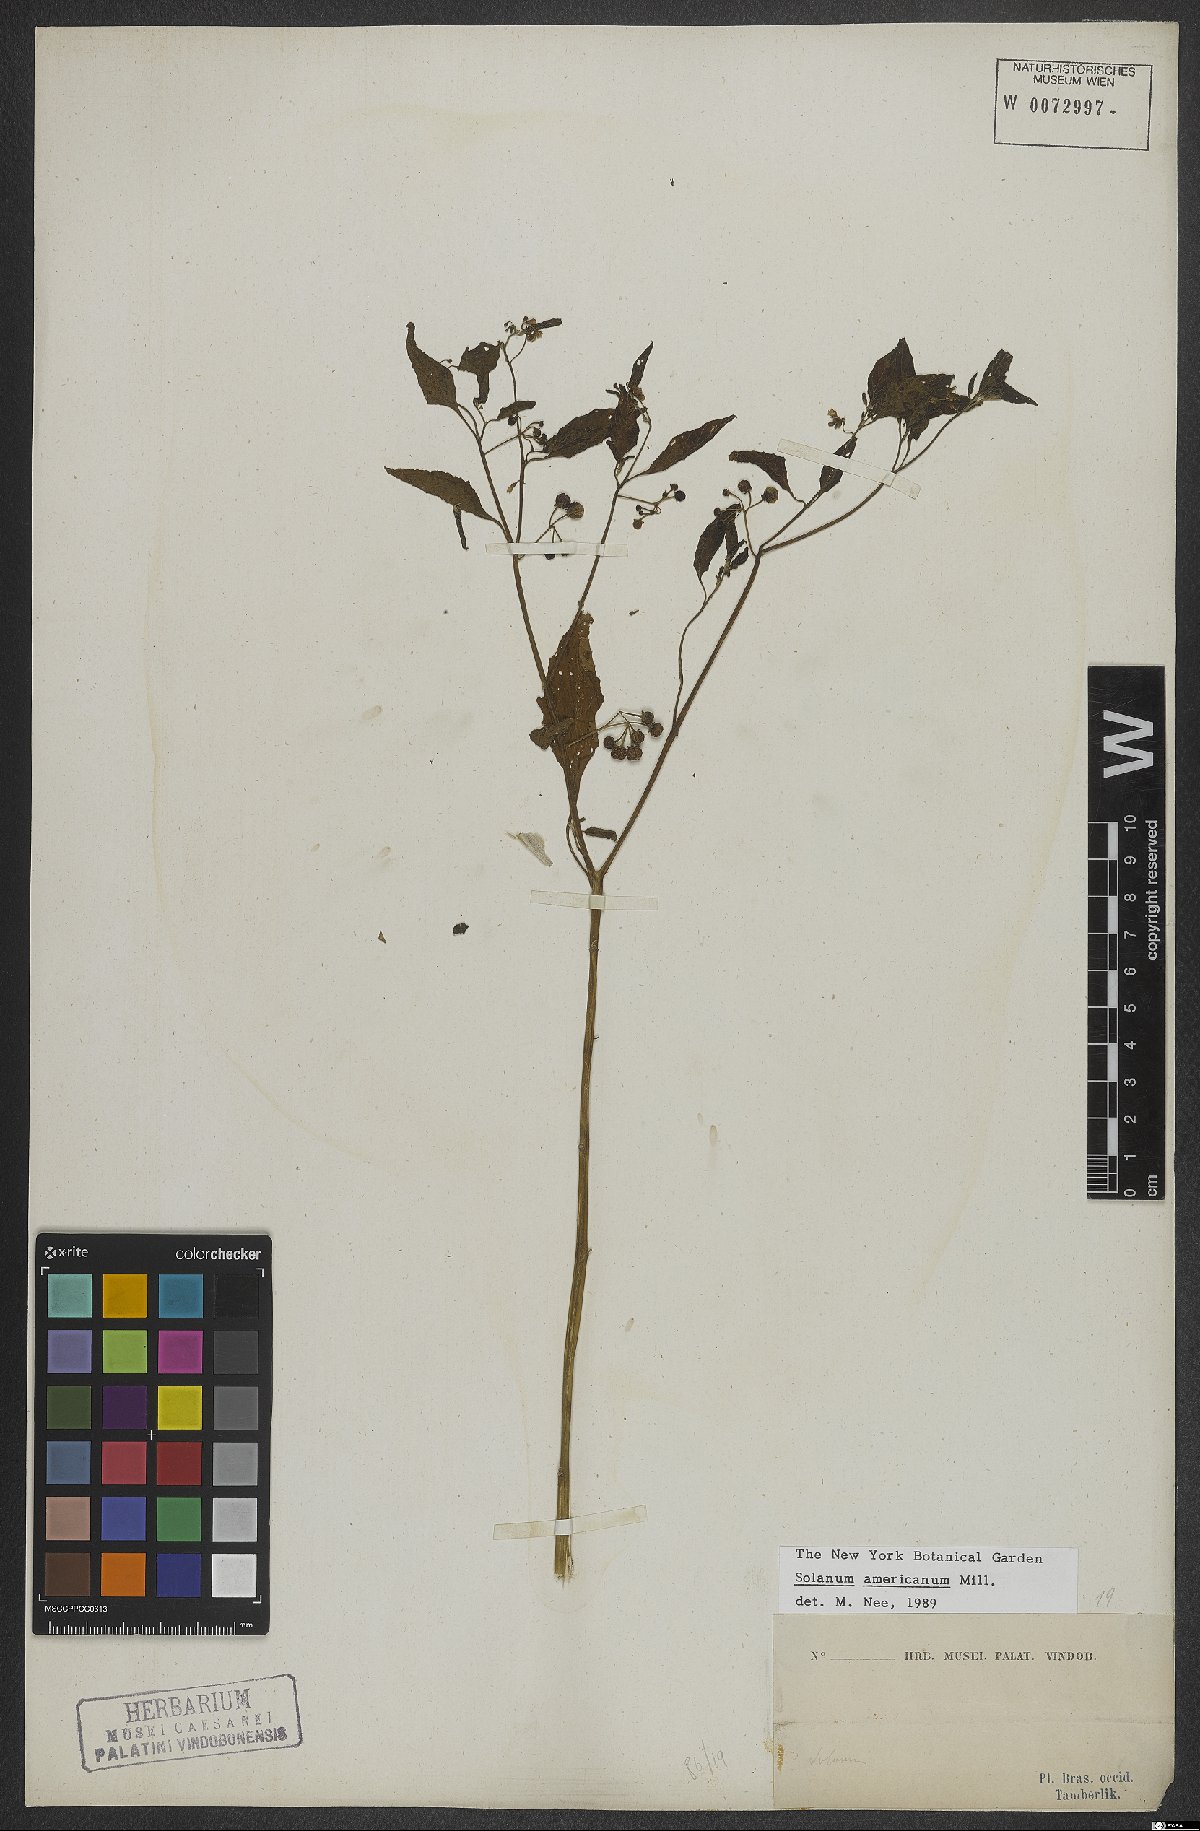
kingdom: Plantae
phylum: Tracheophyta
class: Magnoliopsida
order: Solanales
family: Solanaceae
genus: Solanum
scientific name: Solanum americanum
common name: American black nightshade
